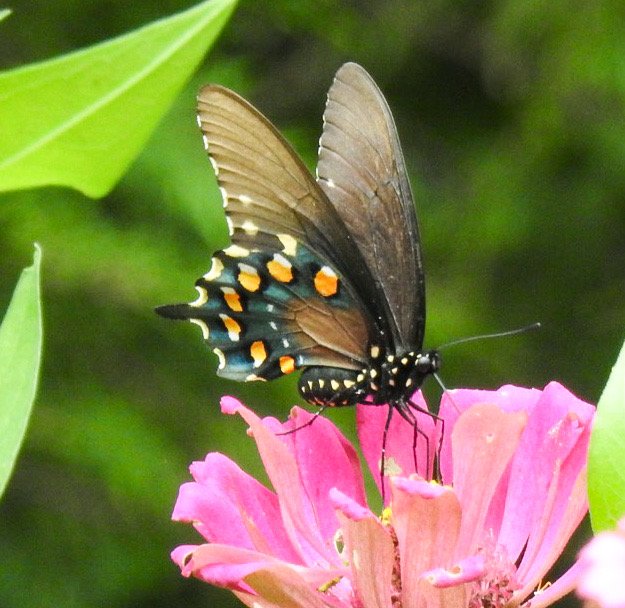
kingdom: Animalia
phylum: Arthropoda
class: Insecta
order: Lepidoptera
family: Papilionidae
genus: Battus
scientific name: Battus philenor
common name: Pipevine Swallowtail
